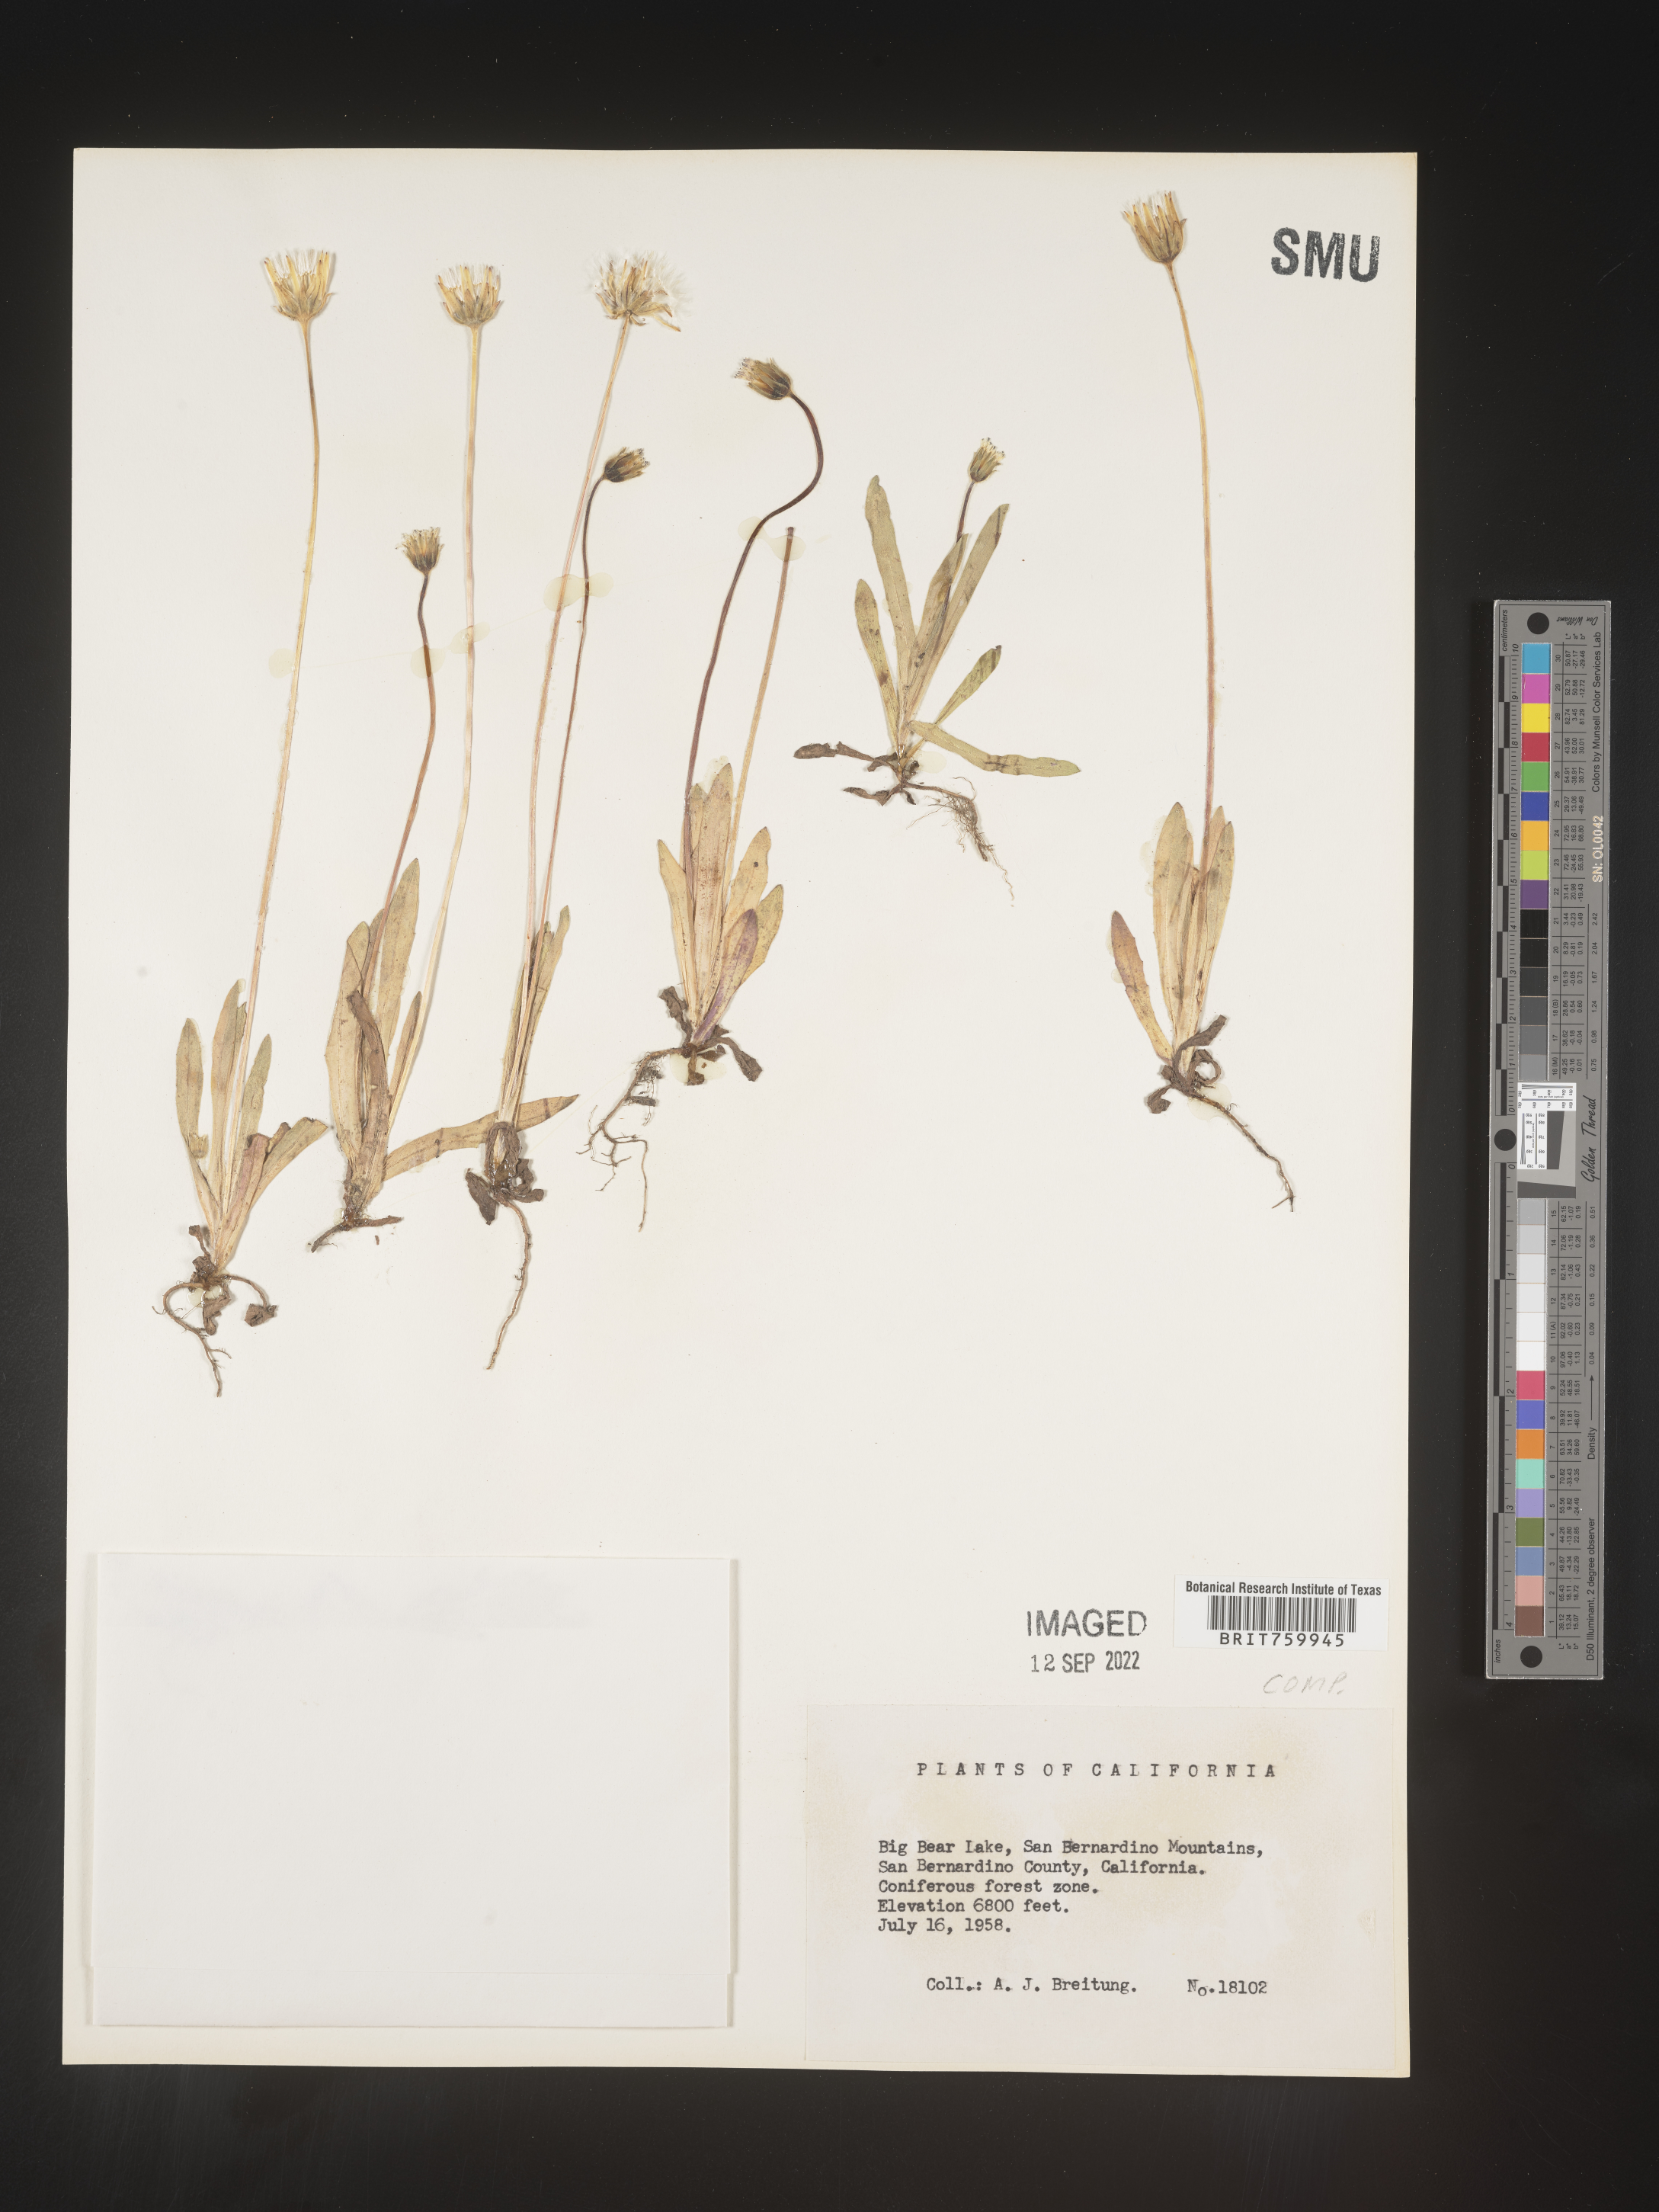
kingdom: Plantae
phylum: Tracheophyta
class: Magnoliopsida
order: Asterales
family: Asteraceae
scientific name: Asteraceae
